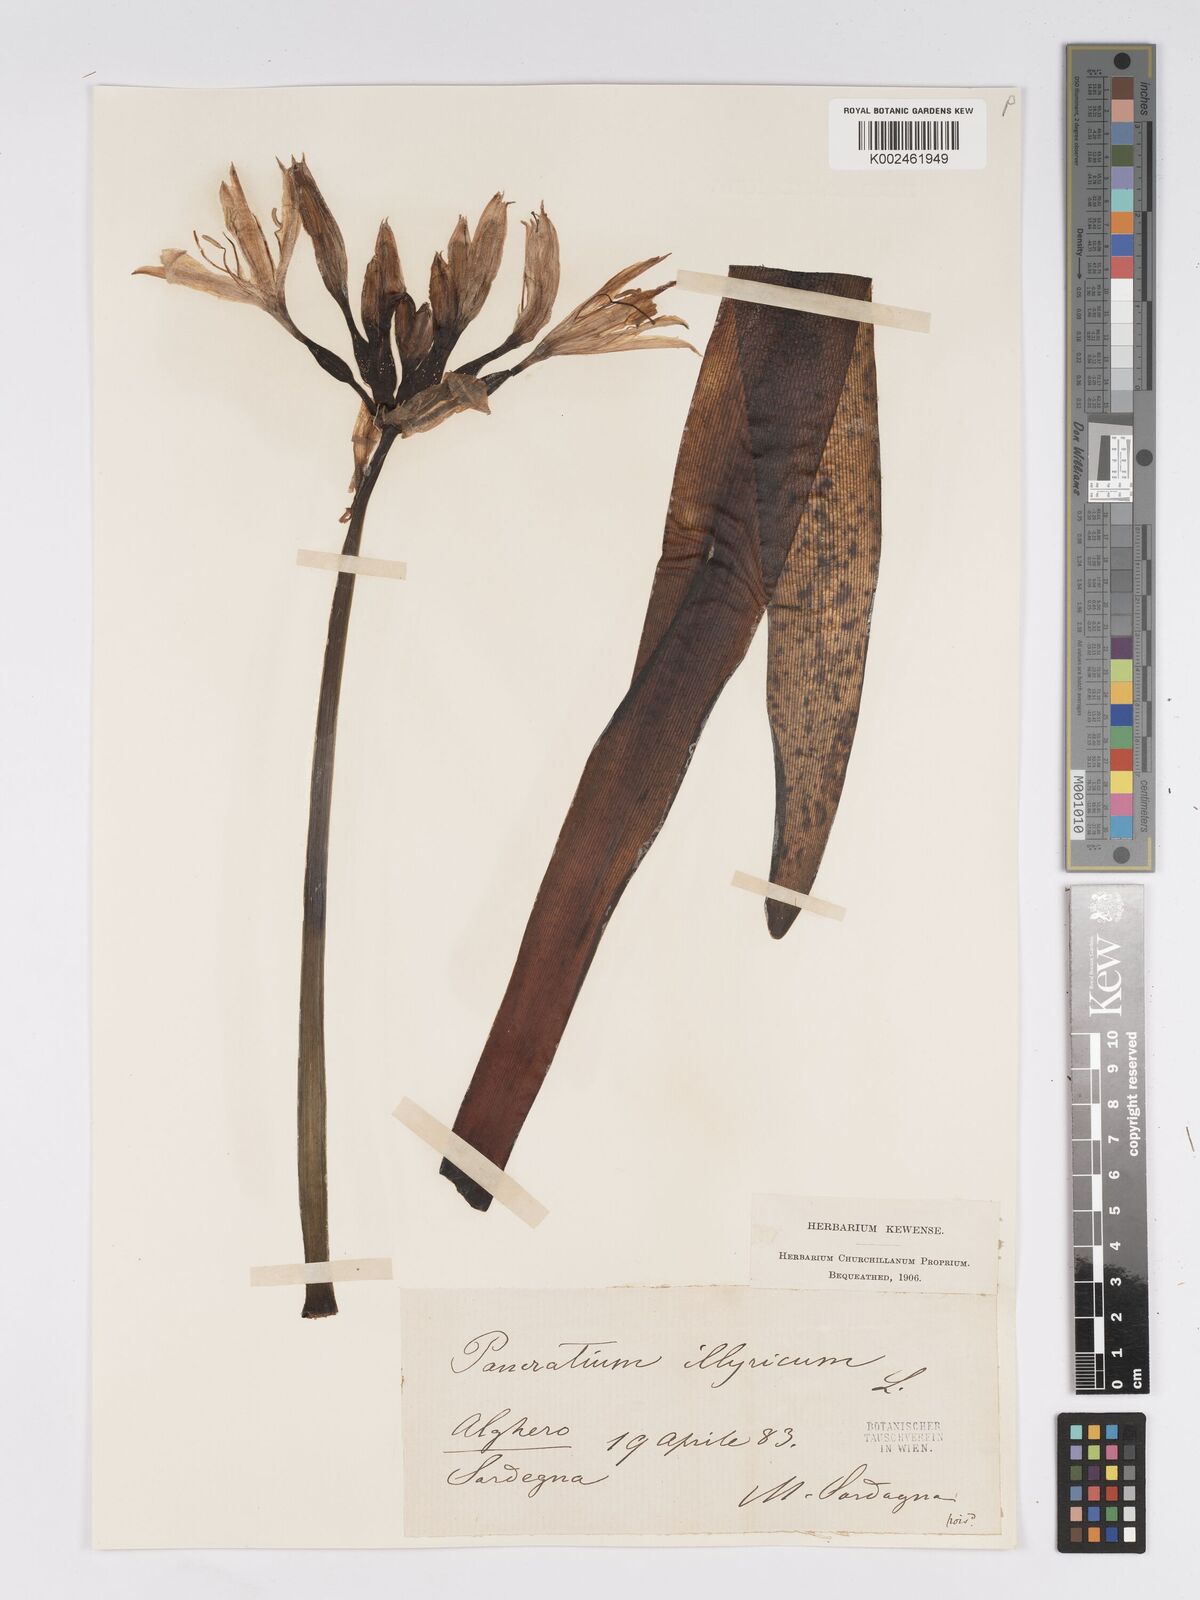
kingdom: Plantae
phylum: Tracheophyta
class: Liliopsida
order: Asparagales
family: Amaryllidaceae
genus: Pancratium
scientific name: Pancratium illyricum
